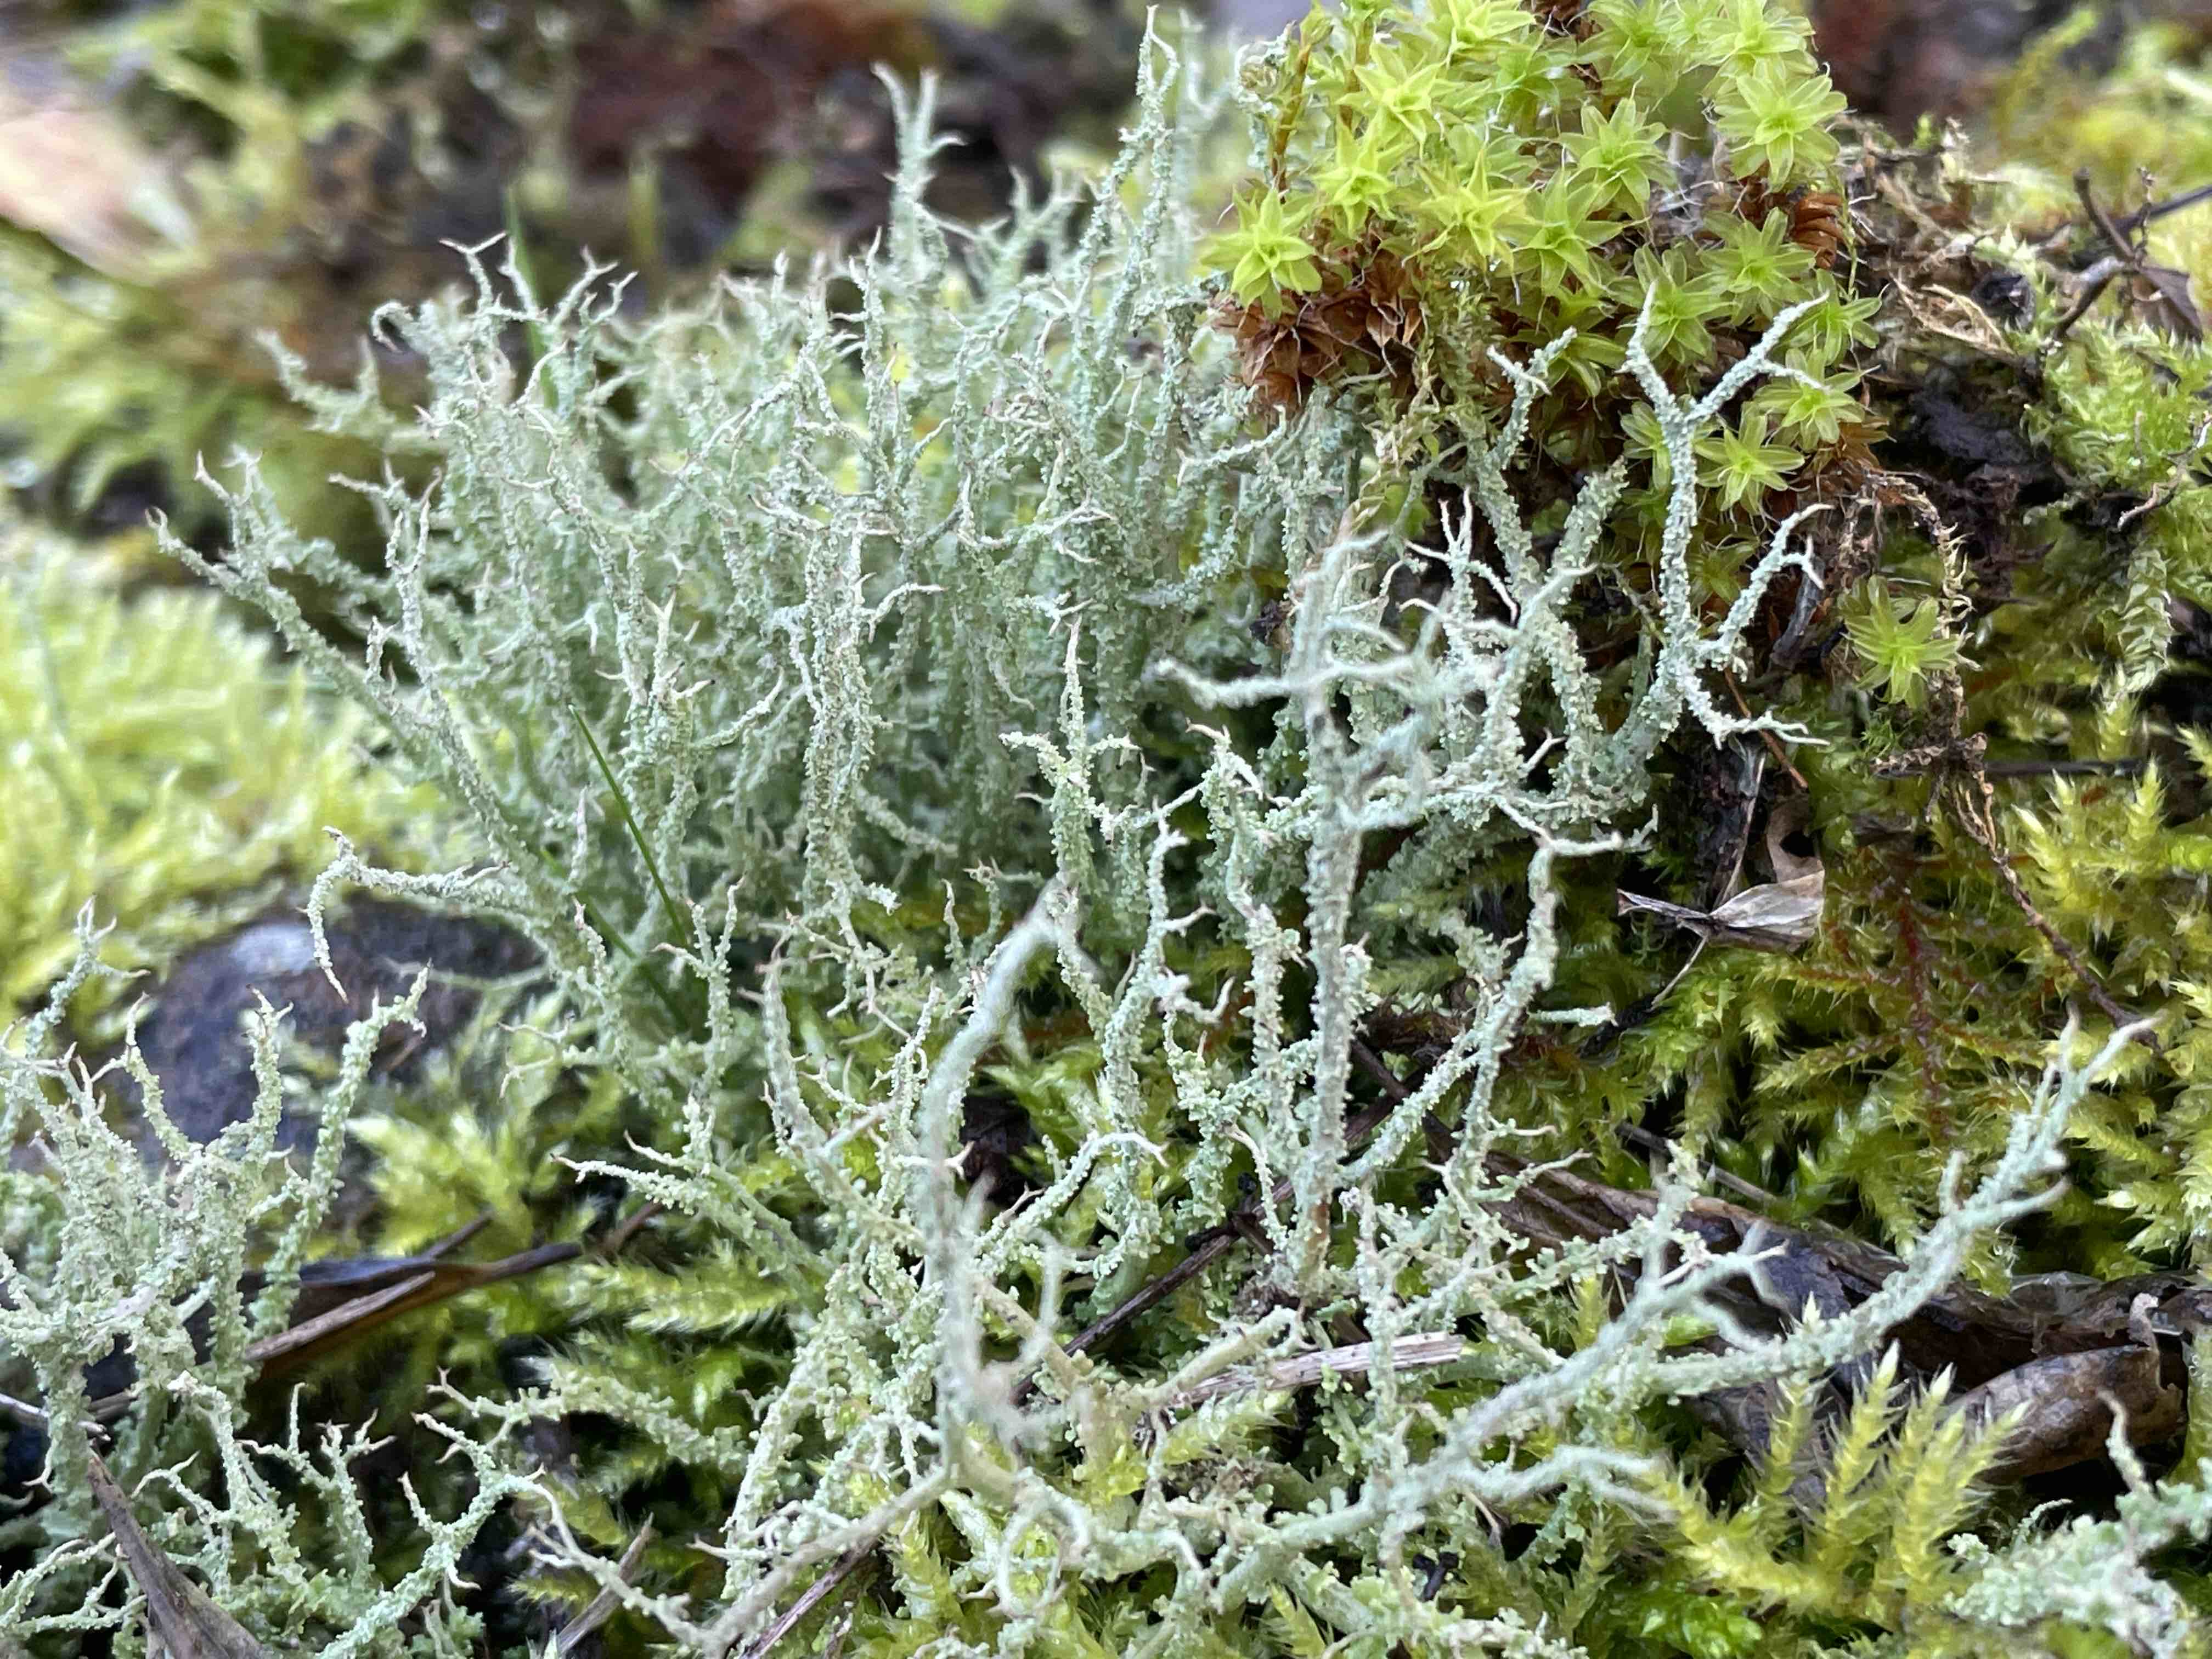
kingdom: Fungi
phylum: Ascomycota
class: Lecanoromycetes
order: Lecanorales
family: Cladoniaceae
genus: Cladonia
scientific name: Cladonia scabriuscula
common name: ru bægerlav
